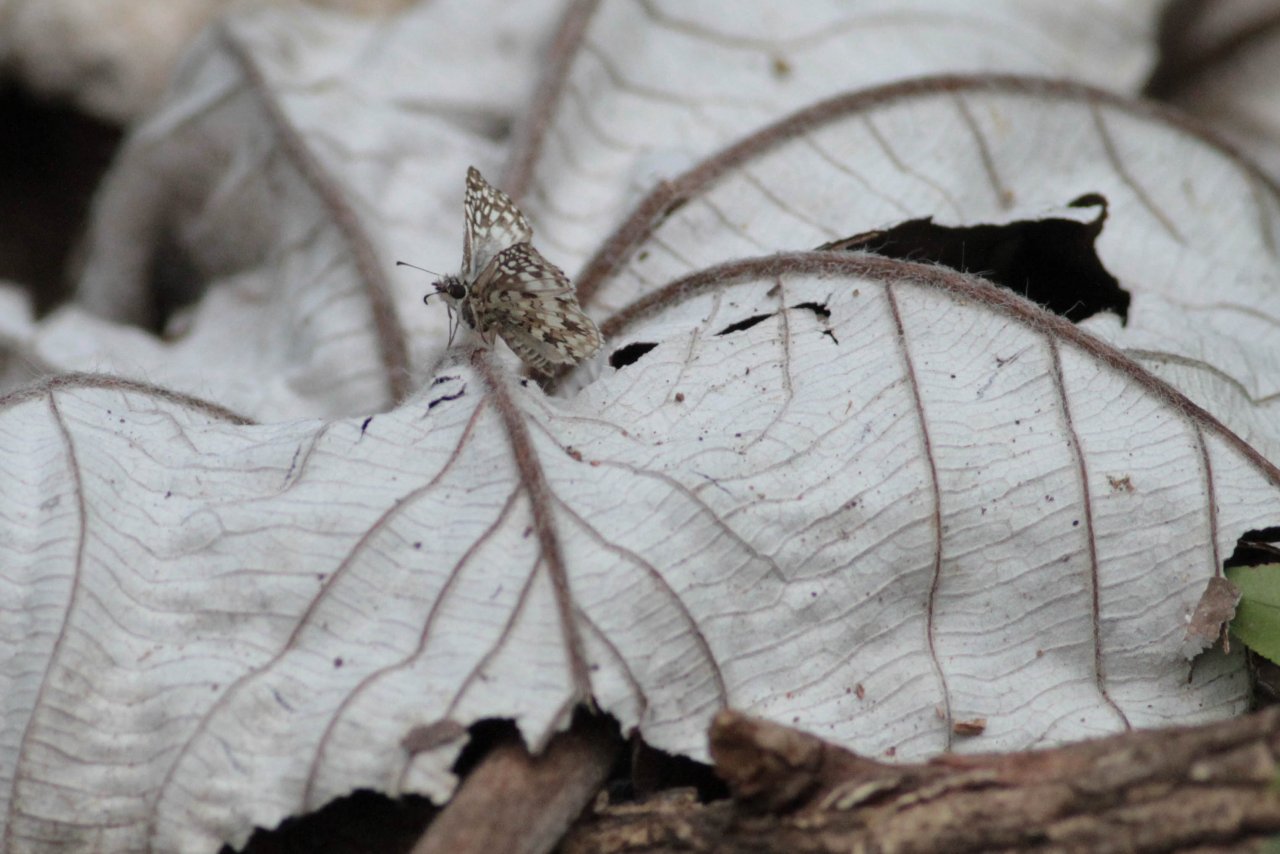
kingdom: Animalia
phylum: Arthropoda
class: Insecta
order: Lepidoptera
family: Hesperiidae
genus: Pyrgus
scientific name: Pyrgus oileus
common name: Tropical Checkered-Skipper
